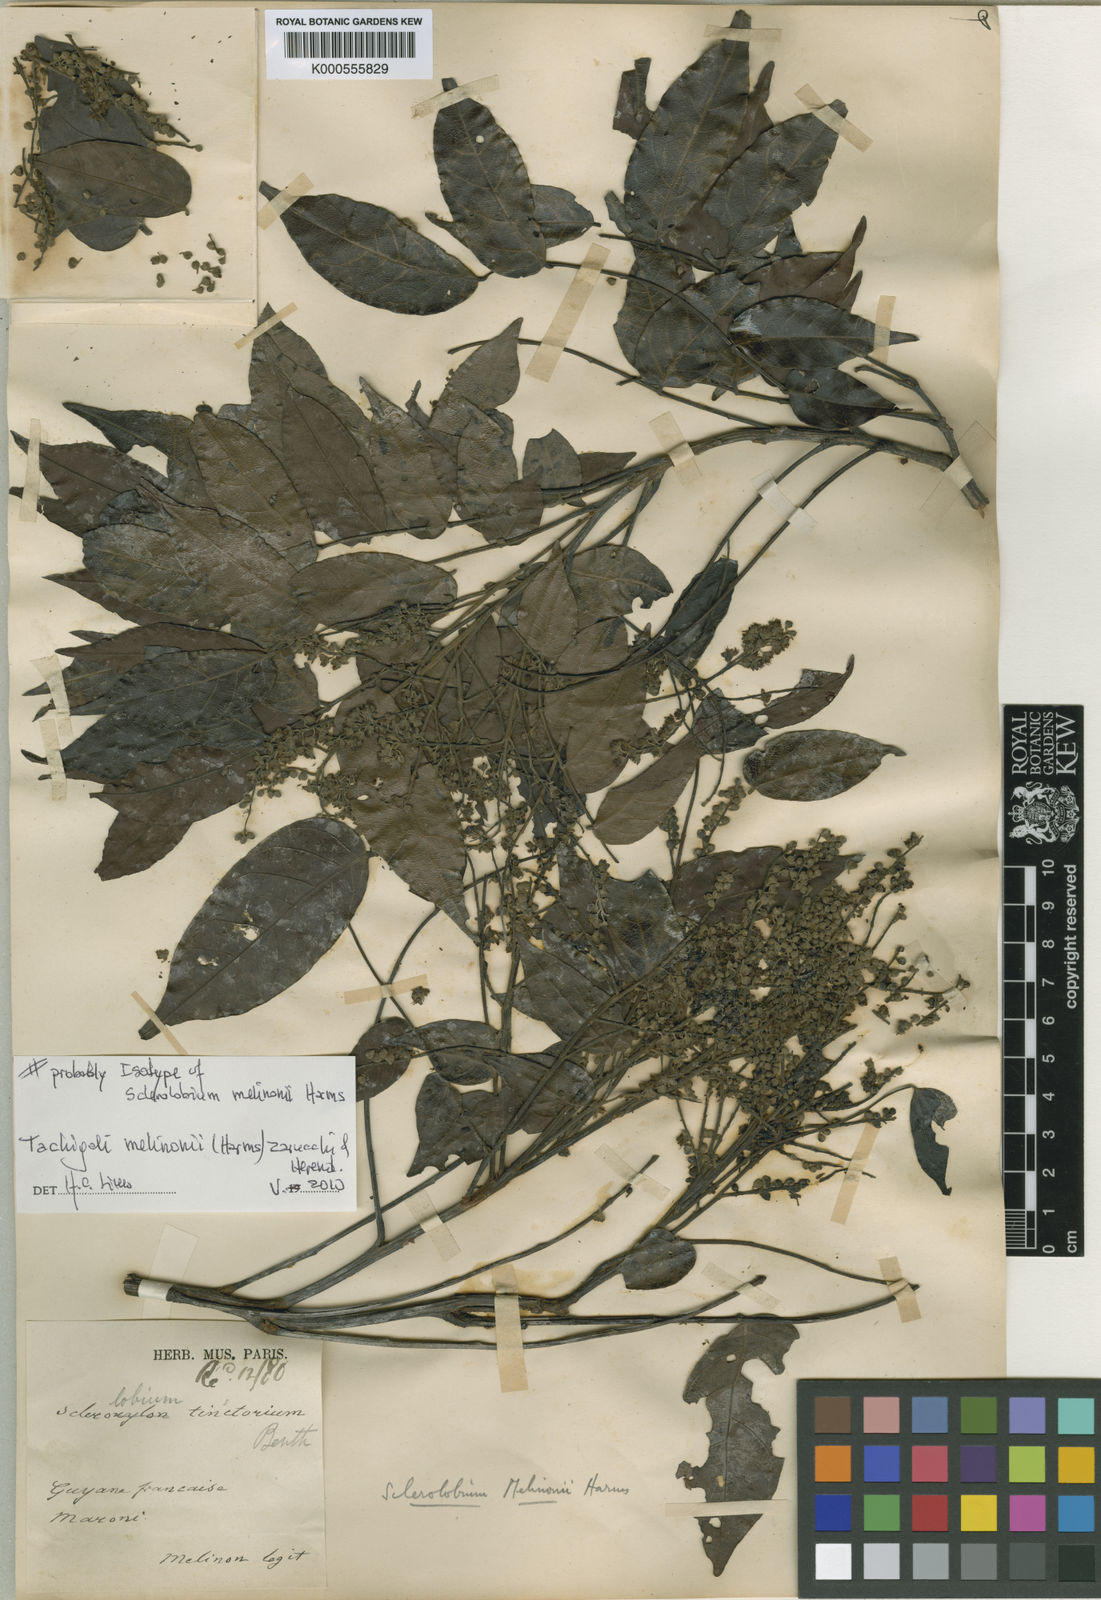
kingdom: Plantae
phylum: Tracheophyta
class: Magnoliopsida
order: Fabales
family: Fabaceae
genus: Tachigali
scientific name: Tachigali melinonii
